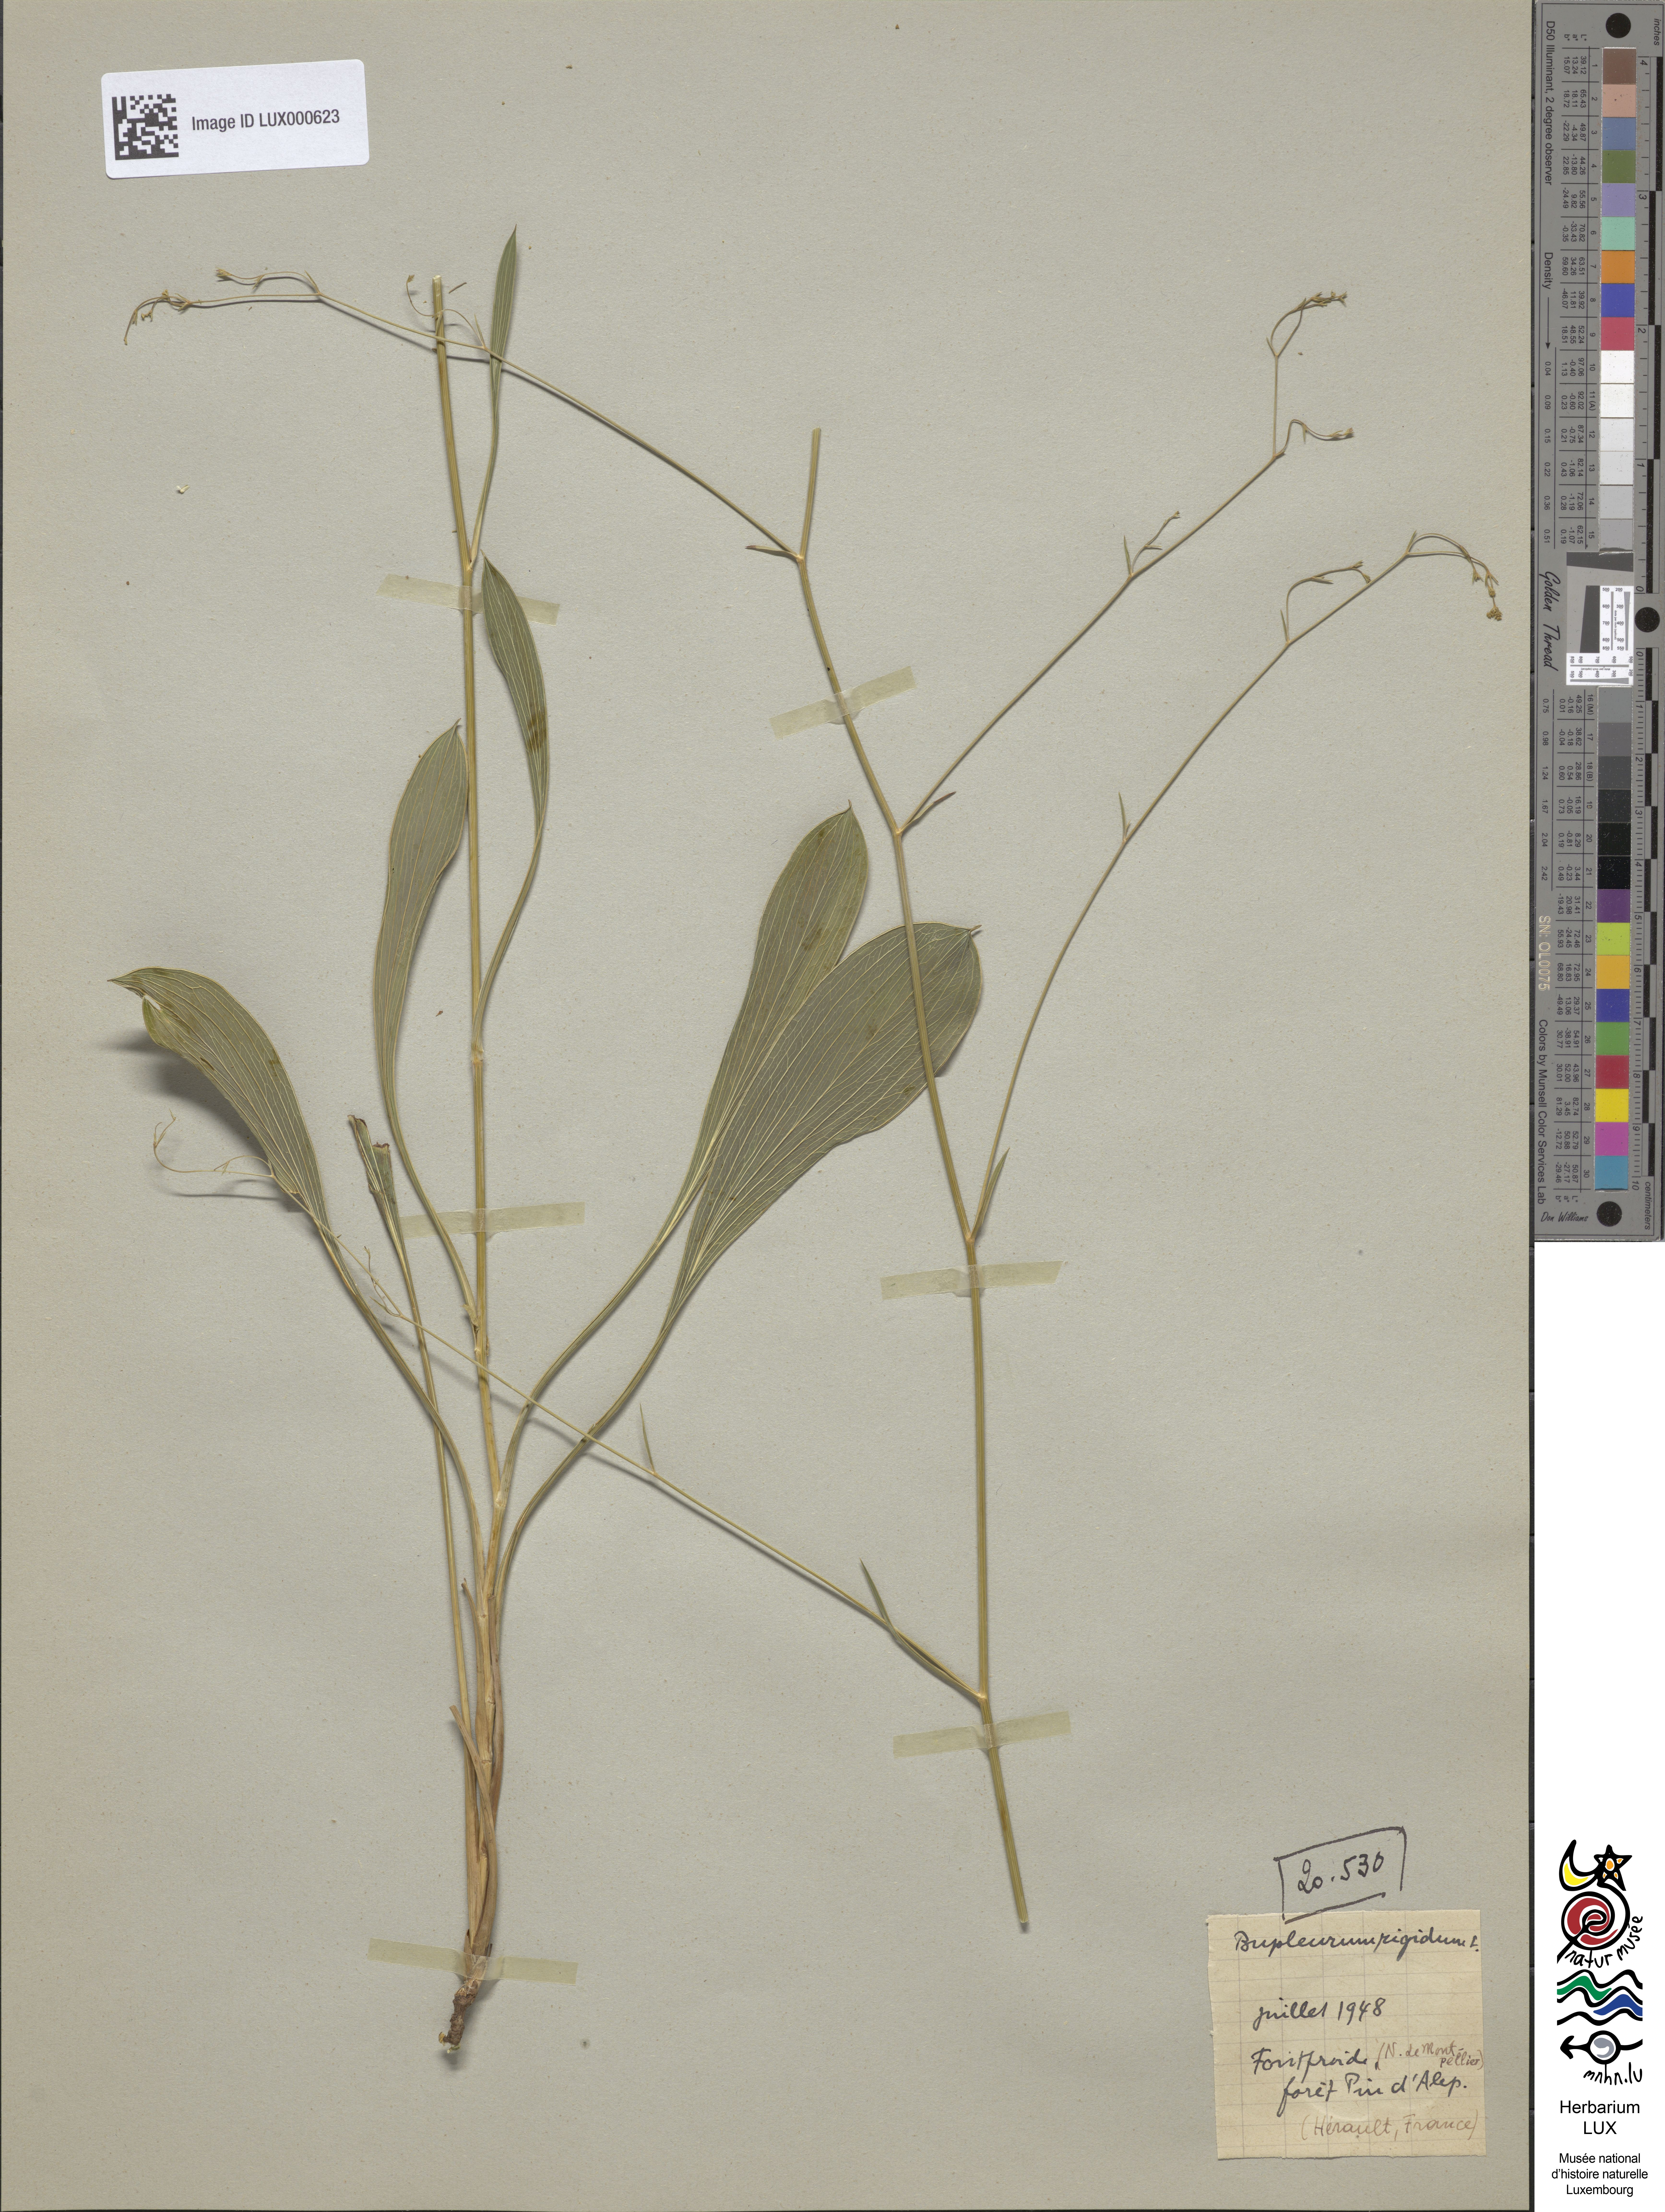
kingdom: Plantae
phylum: Tracheophyta
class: Magnoliopsida
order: Apiales
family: Apiaceae
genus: Bupleurum
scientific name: Bupleurum rigidum
